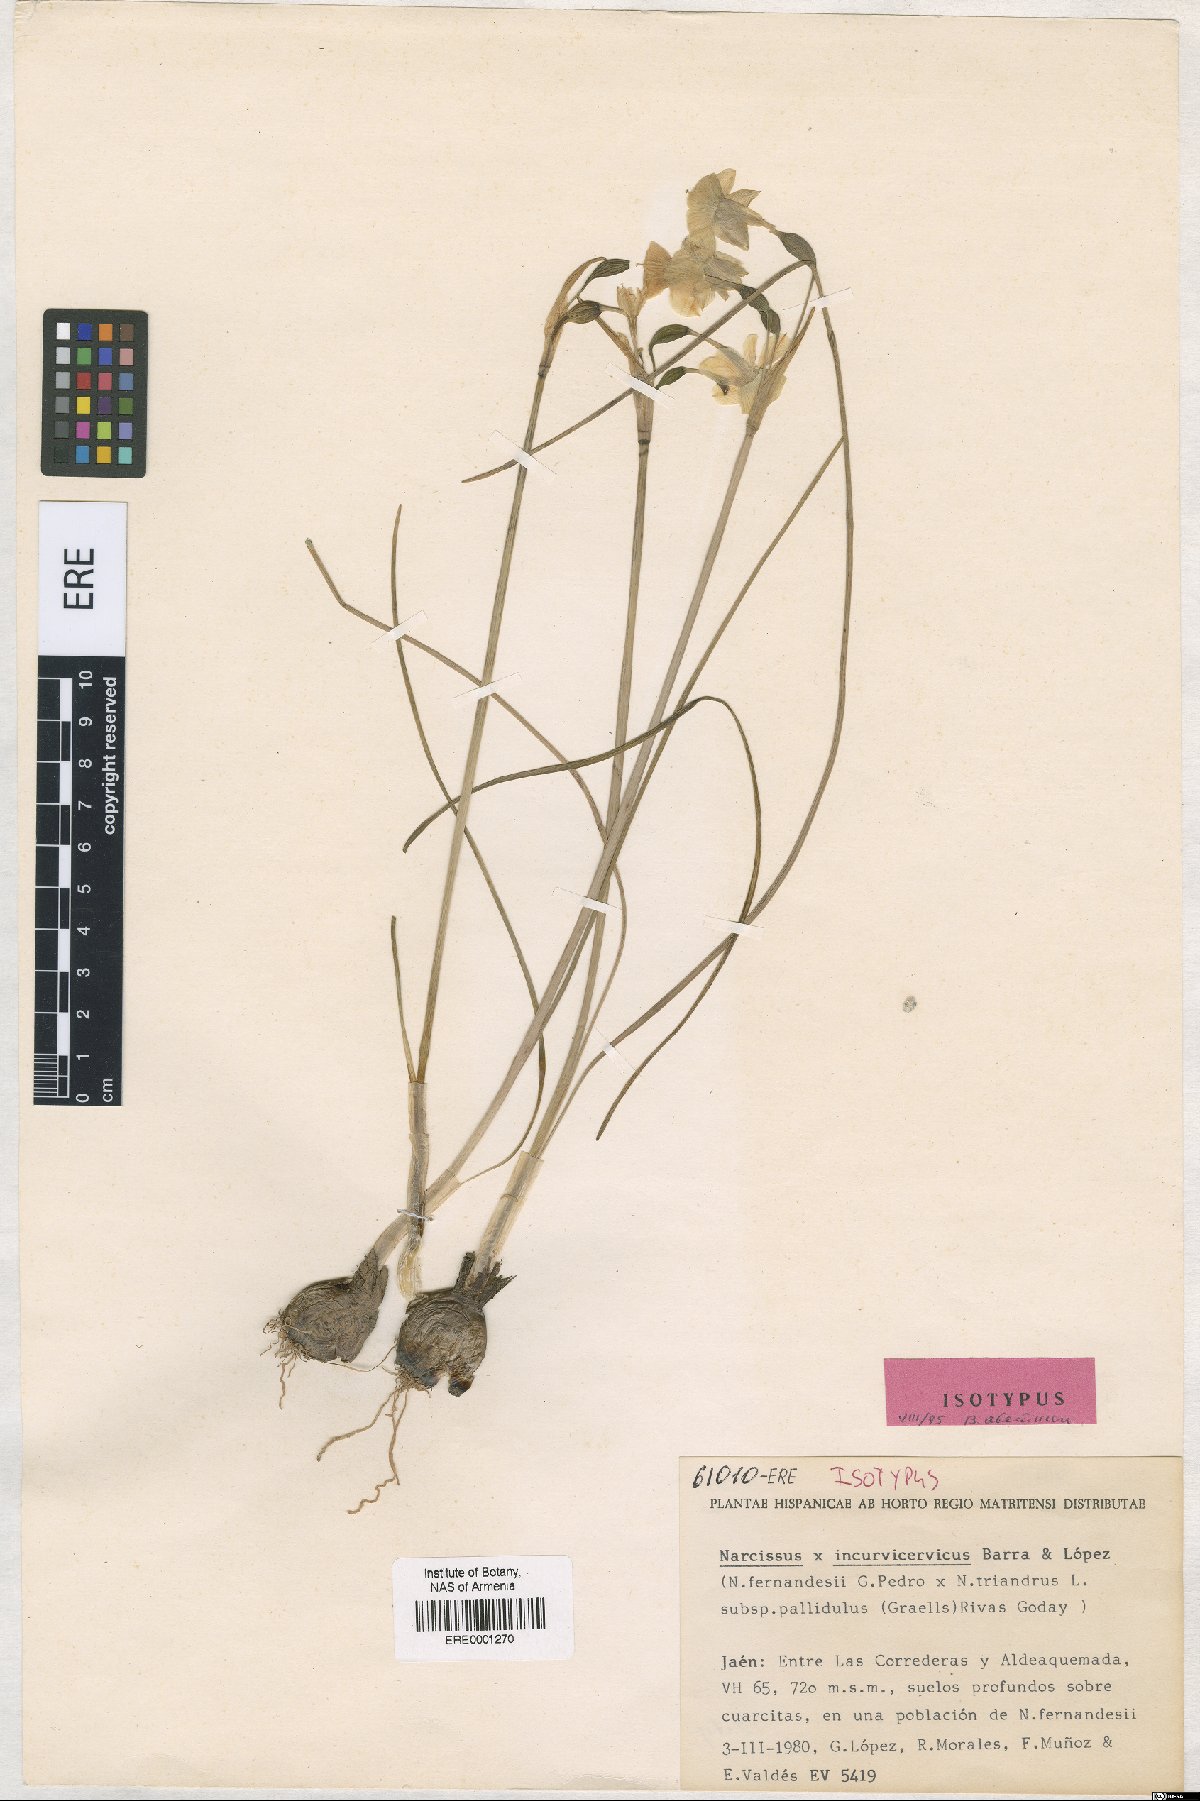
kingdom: Plantae
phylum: Tracheophyta
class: Liliopsida
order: Asparagales
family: Amaryllidaceae
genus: Narcissus
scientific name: Narcissus ponsii-sorollae
